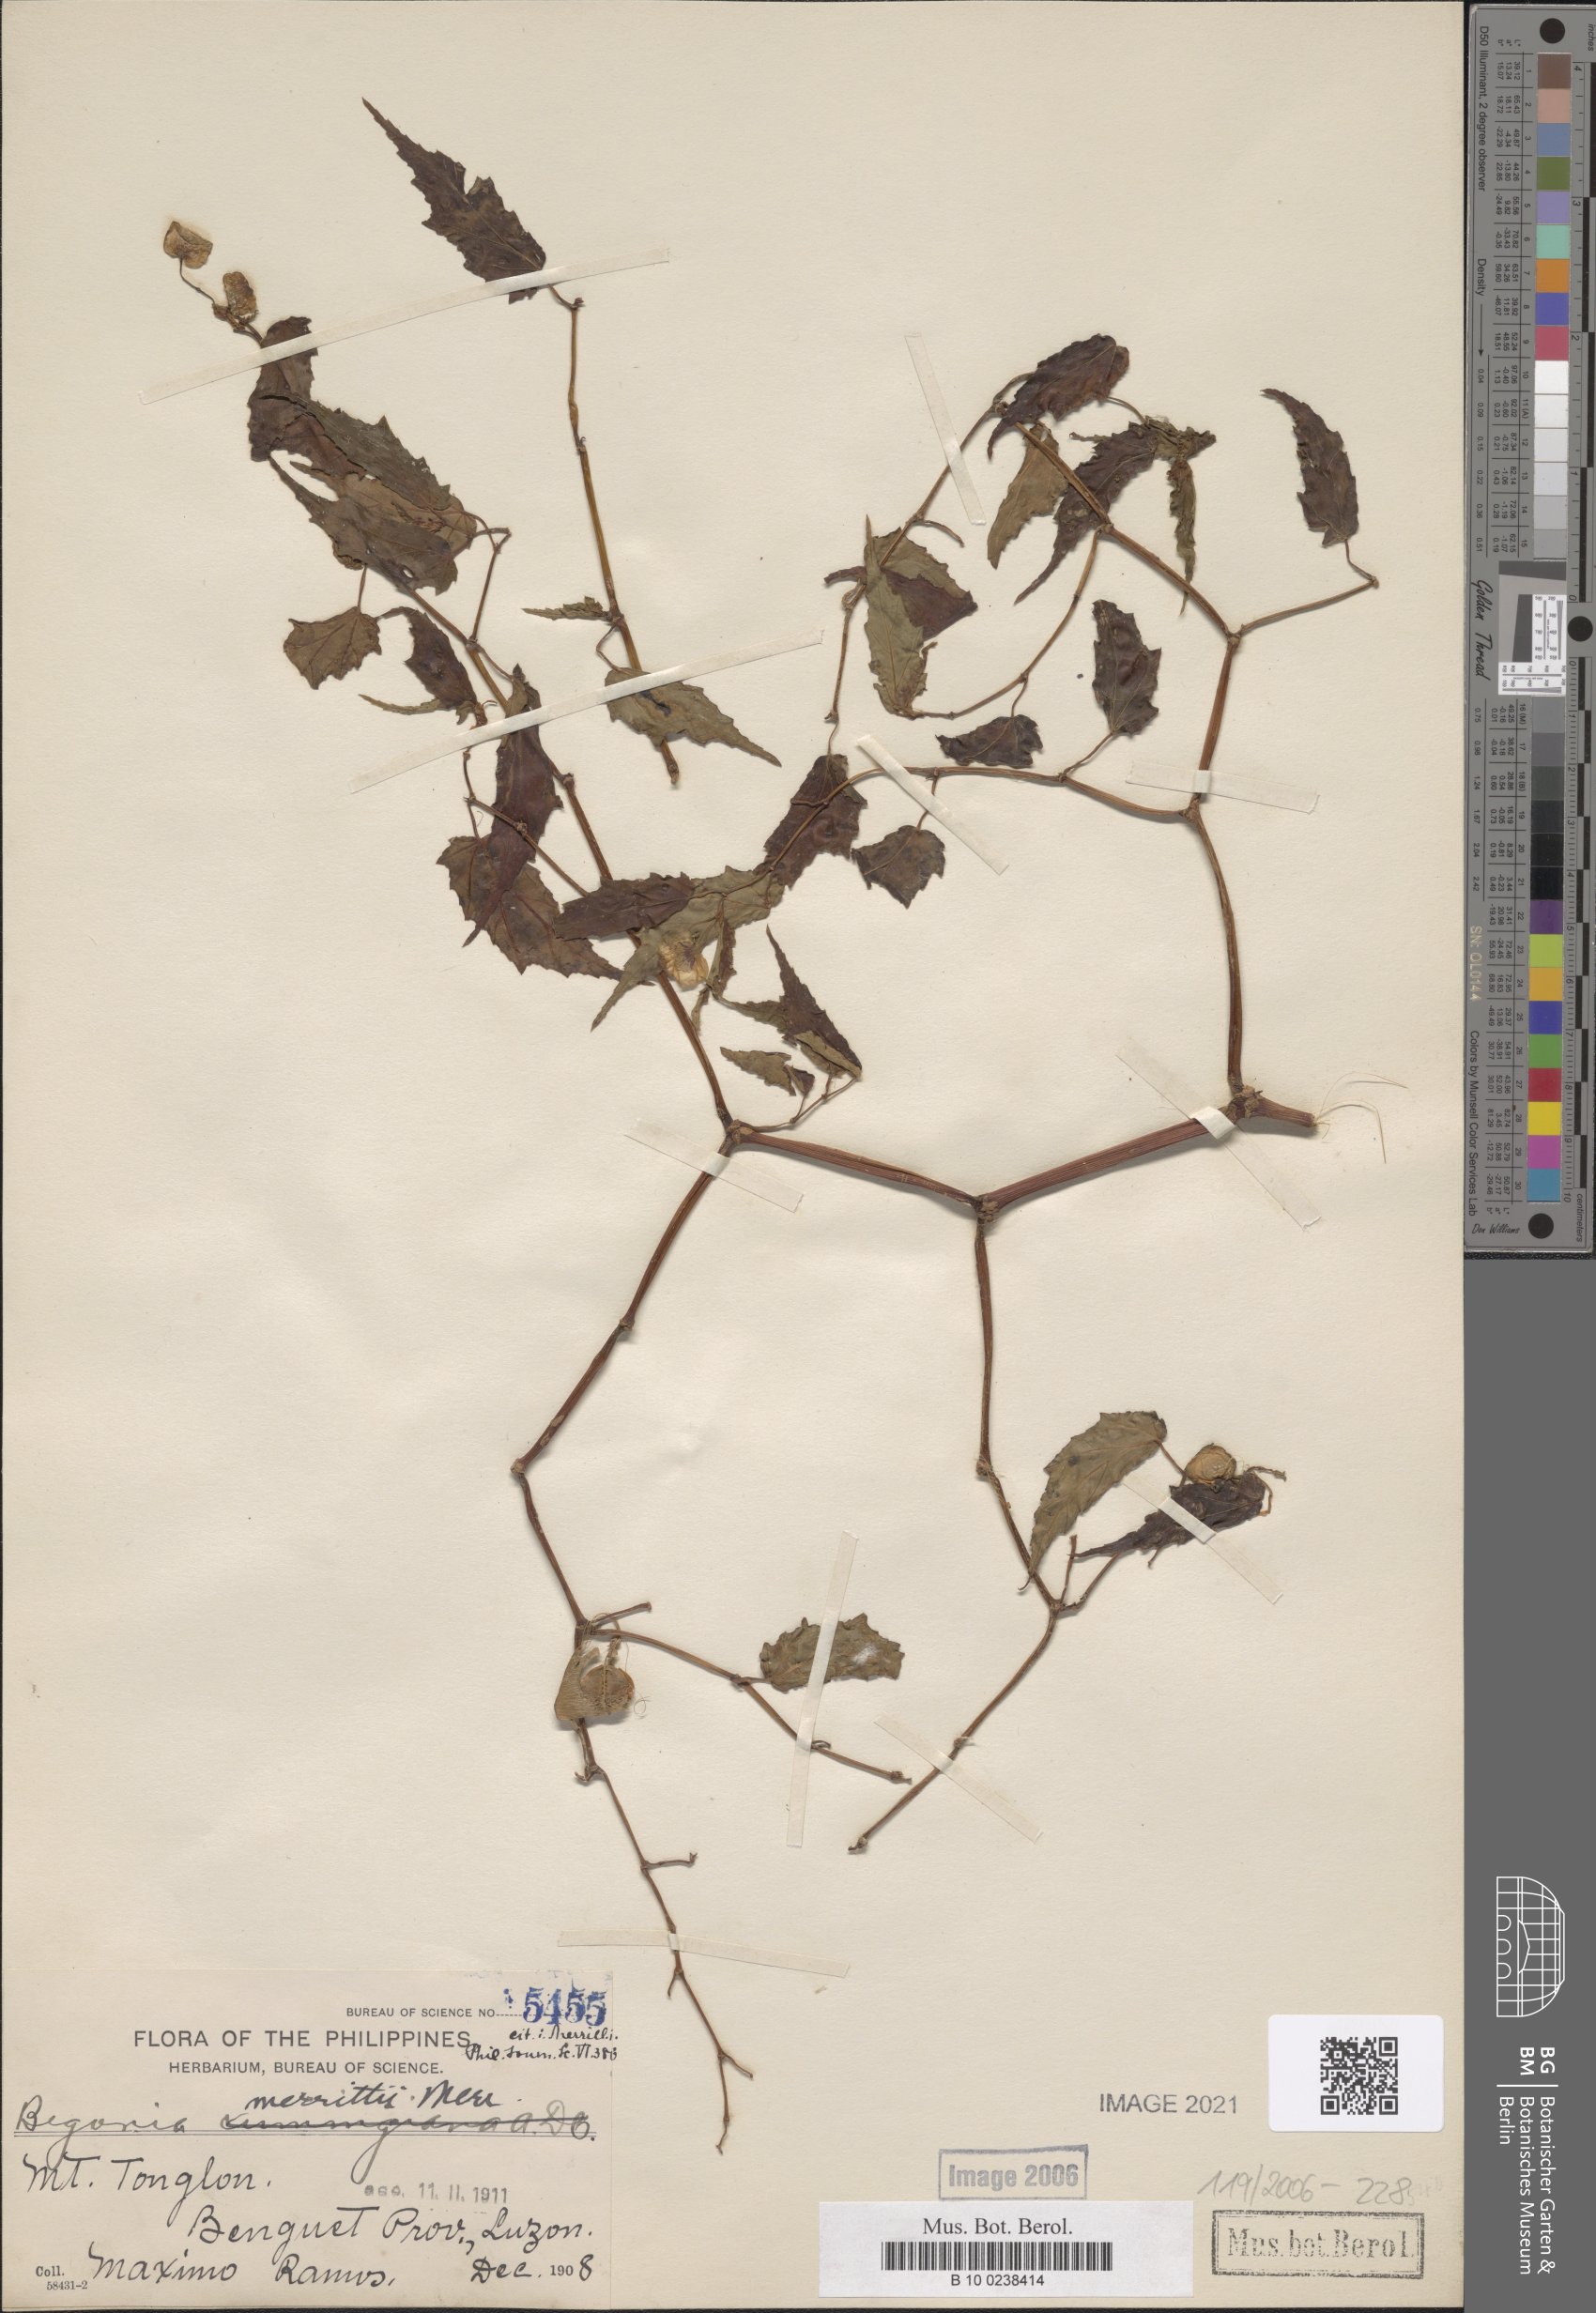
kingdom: Plantae
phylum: Tracheophyta
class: Magnoliopsida
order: Cucurbitales
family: Begoniaceae
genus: Begonia
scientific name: Begonia merrittii
